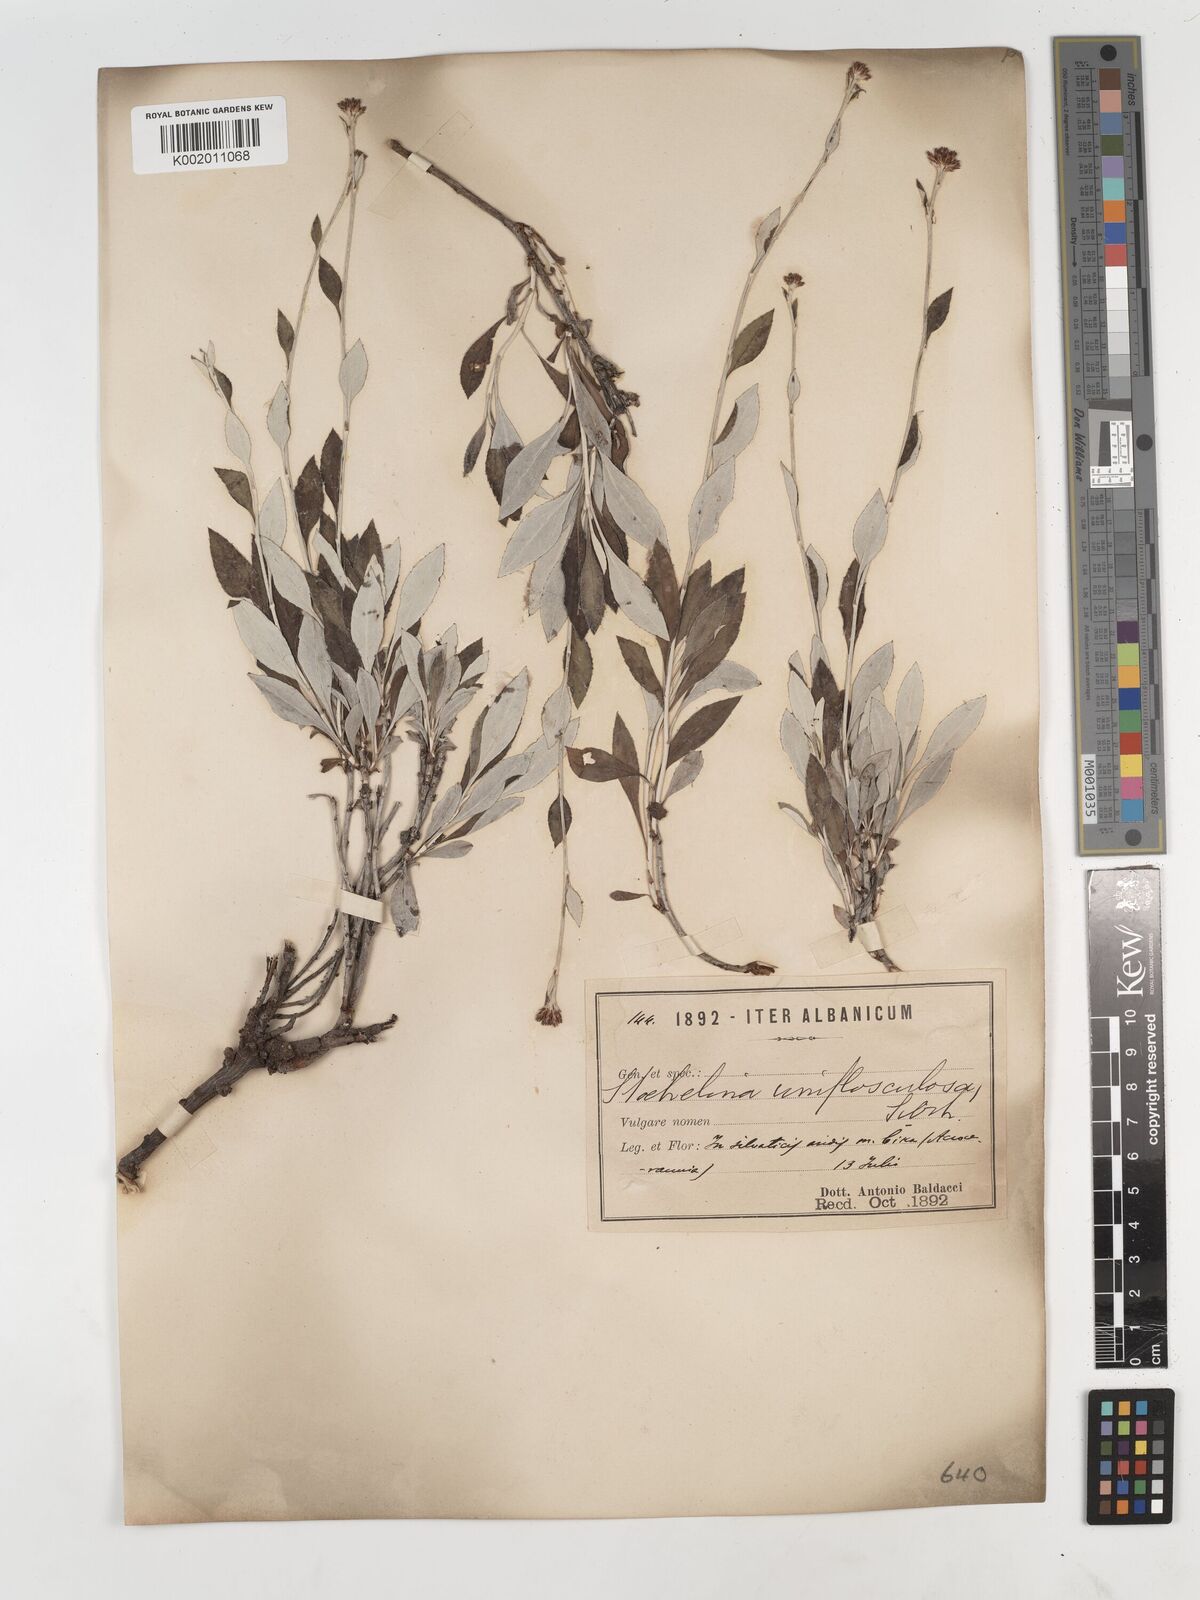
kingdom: Plantae
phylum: Tracheophyta
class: Magnoliopsida
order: Asterales
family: Asteraceae
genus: Staehelina
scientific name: Staehelina uniflosculosa
